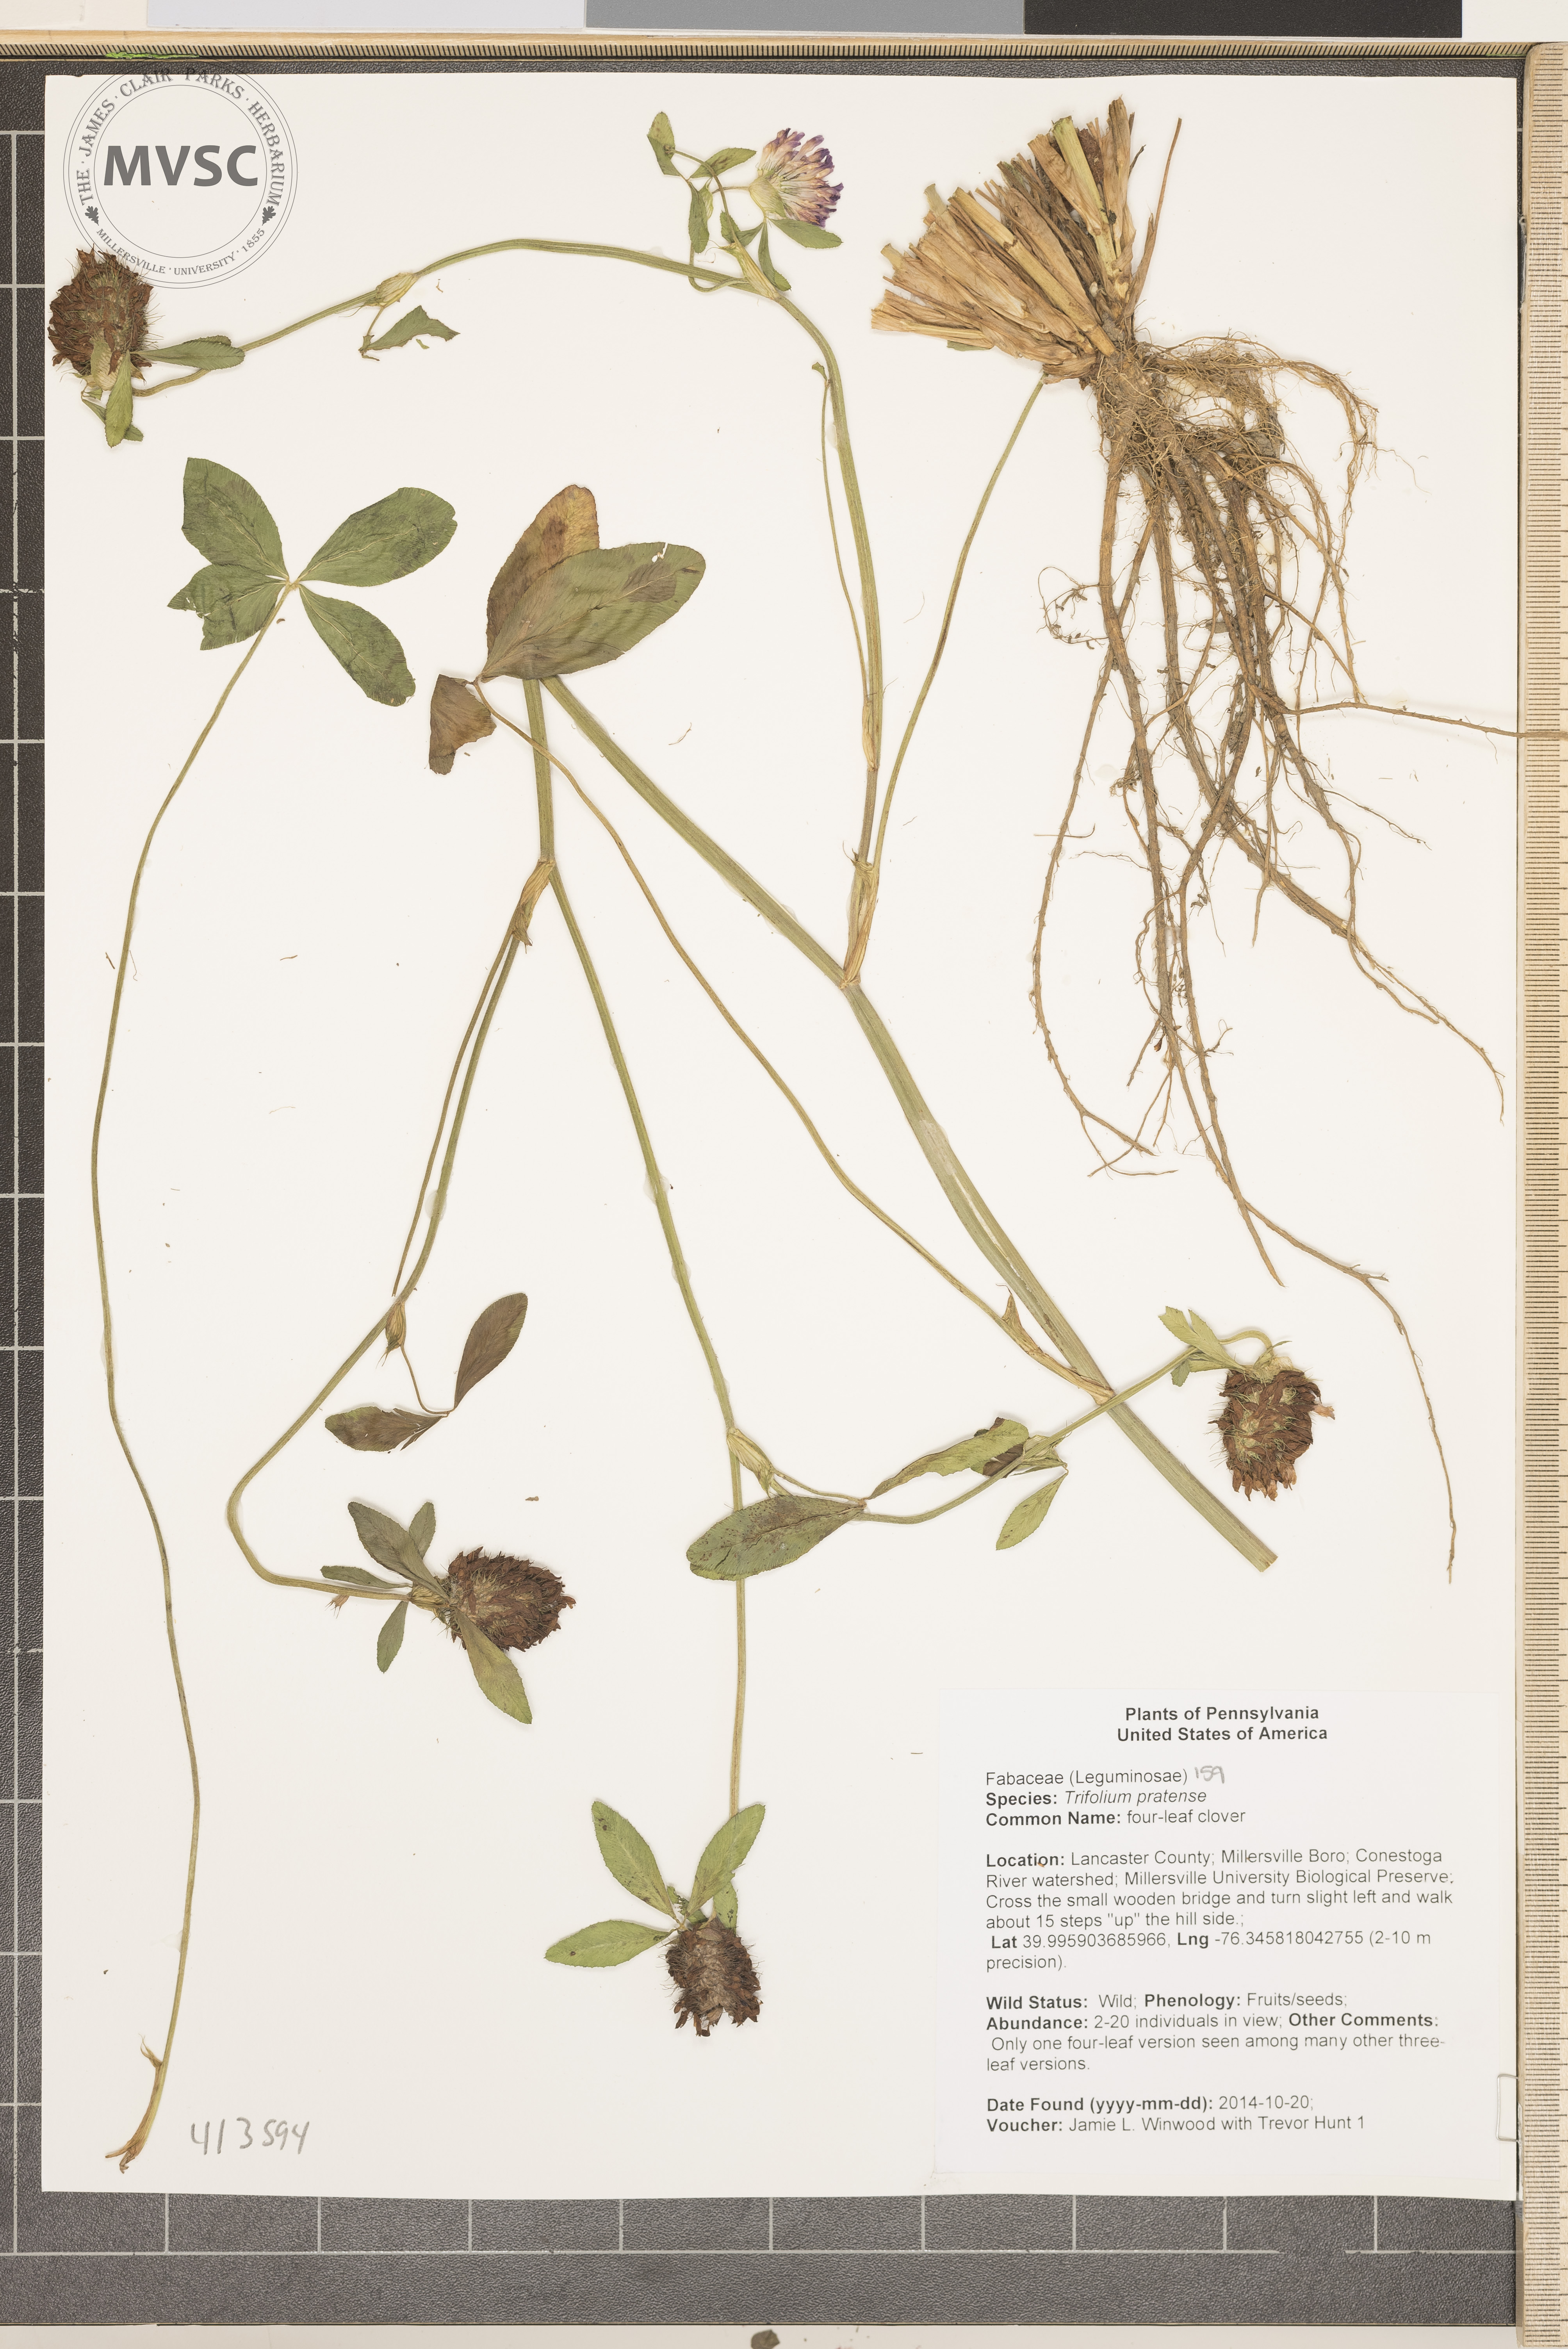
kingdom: Plantae
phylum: Tracheophyta
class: Magnoliopsida
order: Fabales
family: Fabaceae
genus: Trifolium
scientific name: Trifolium pratense
